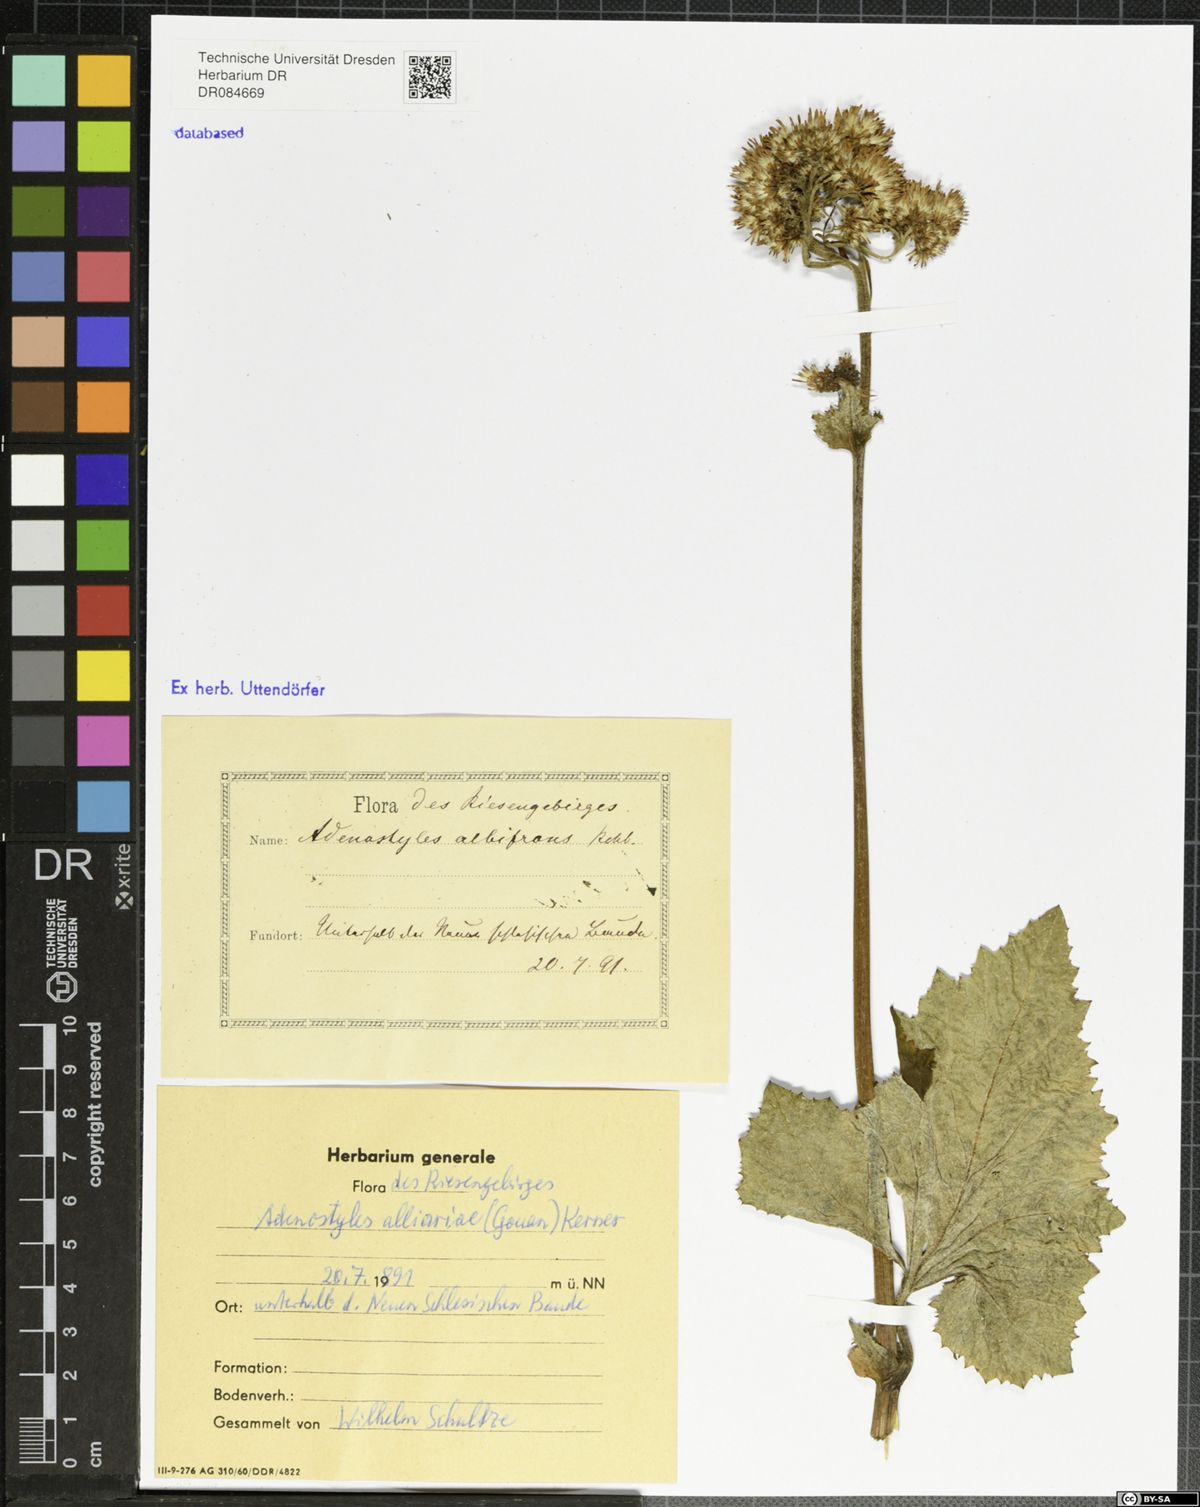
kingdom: Plantae
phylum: Tracheophyta
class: Magnoliopsida
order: Asterales
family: Asteraceae
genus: Adenostyles
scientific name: Adenostyles alliariae
